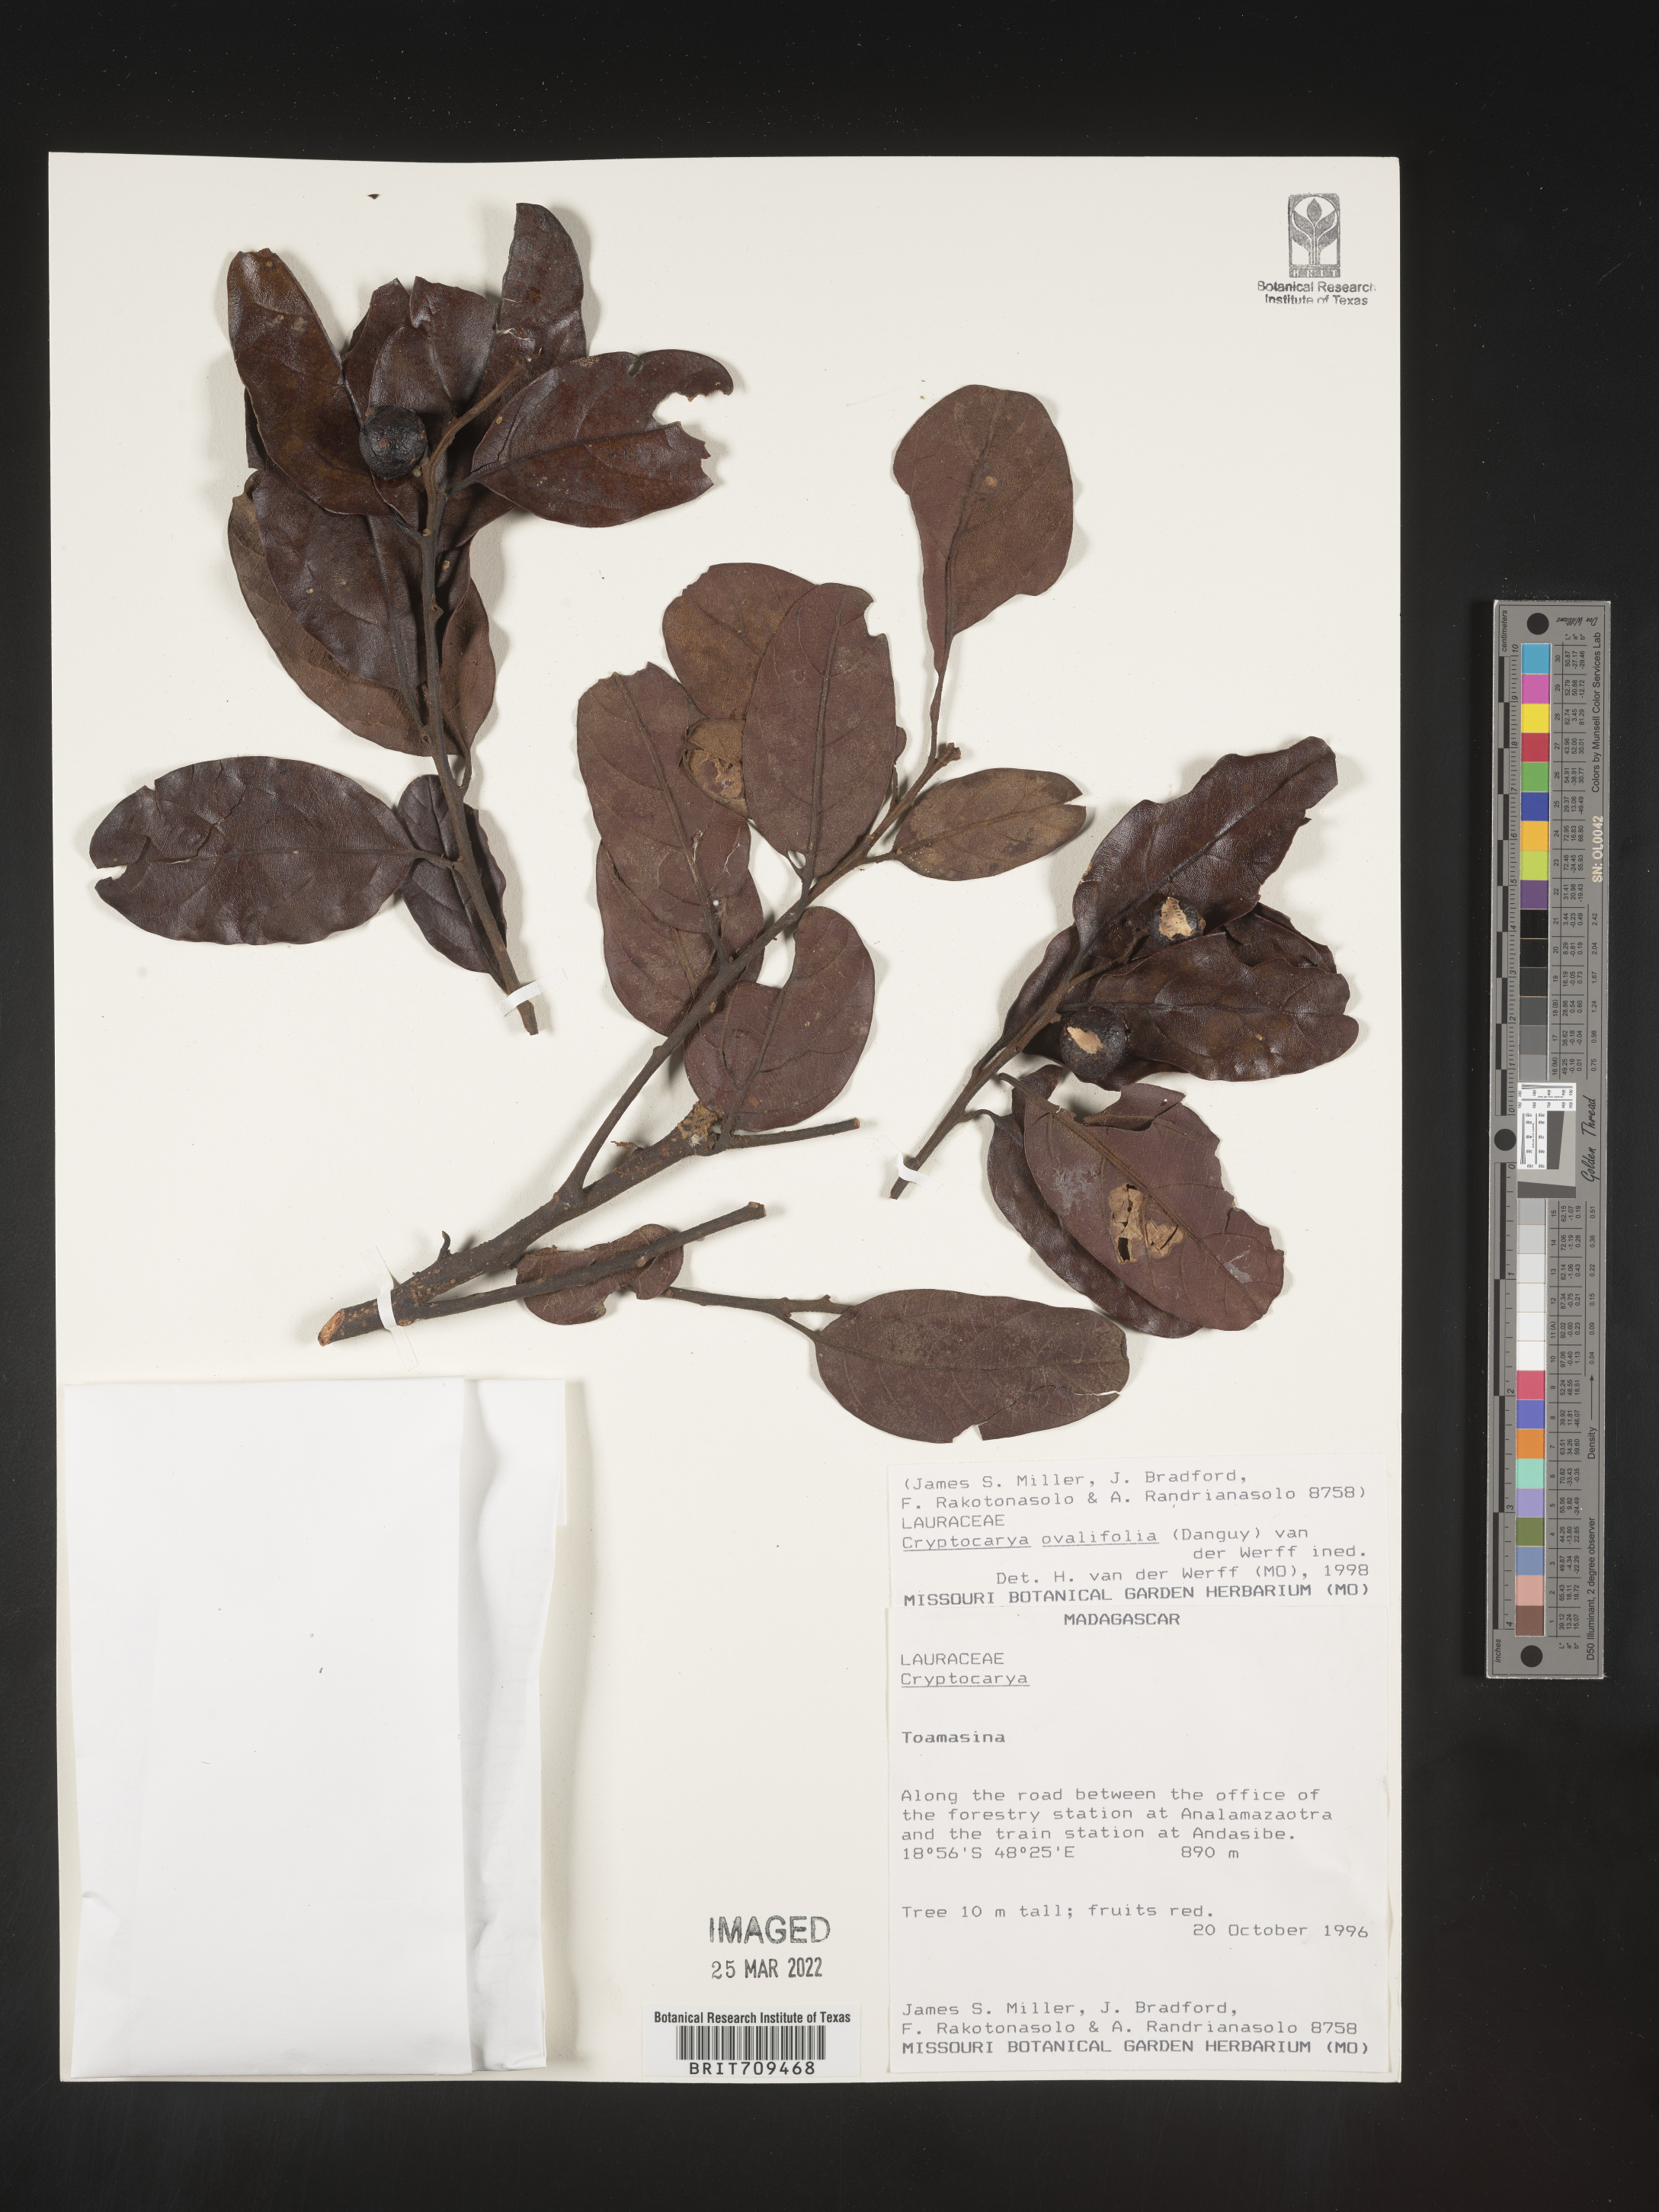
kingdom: Plantae
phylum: Tracheophyta
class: Magnoliopsida
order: Laurales
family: Lauraceae
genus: Cryptocarya
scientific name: Cryptocarya
